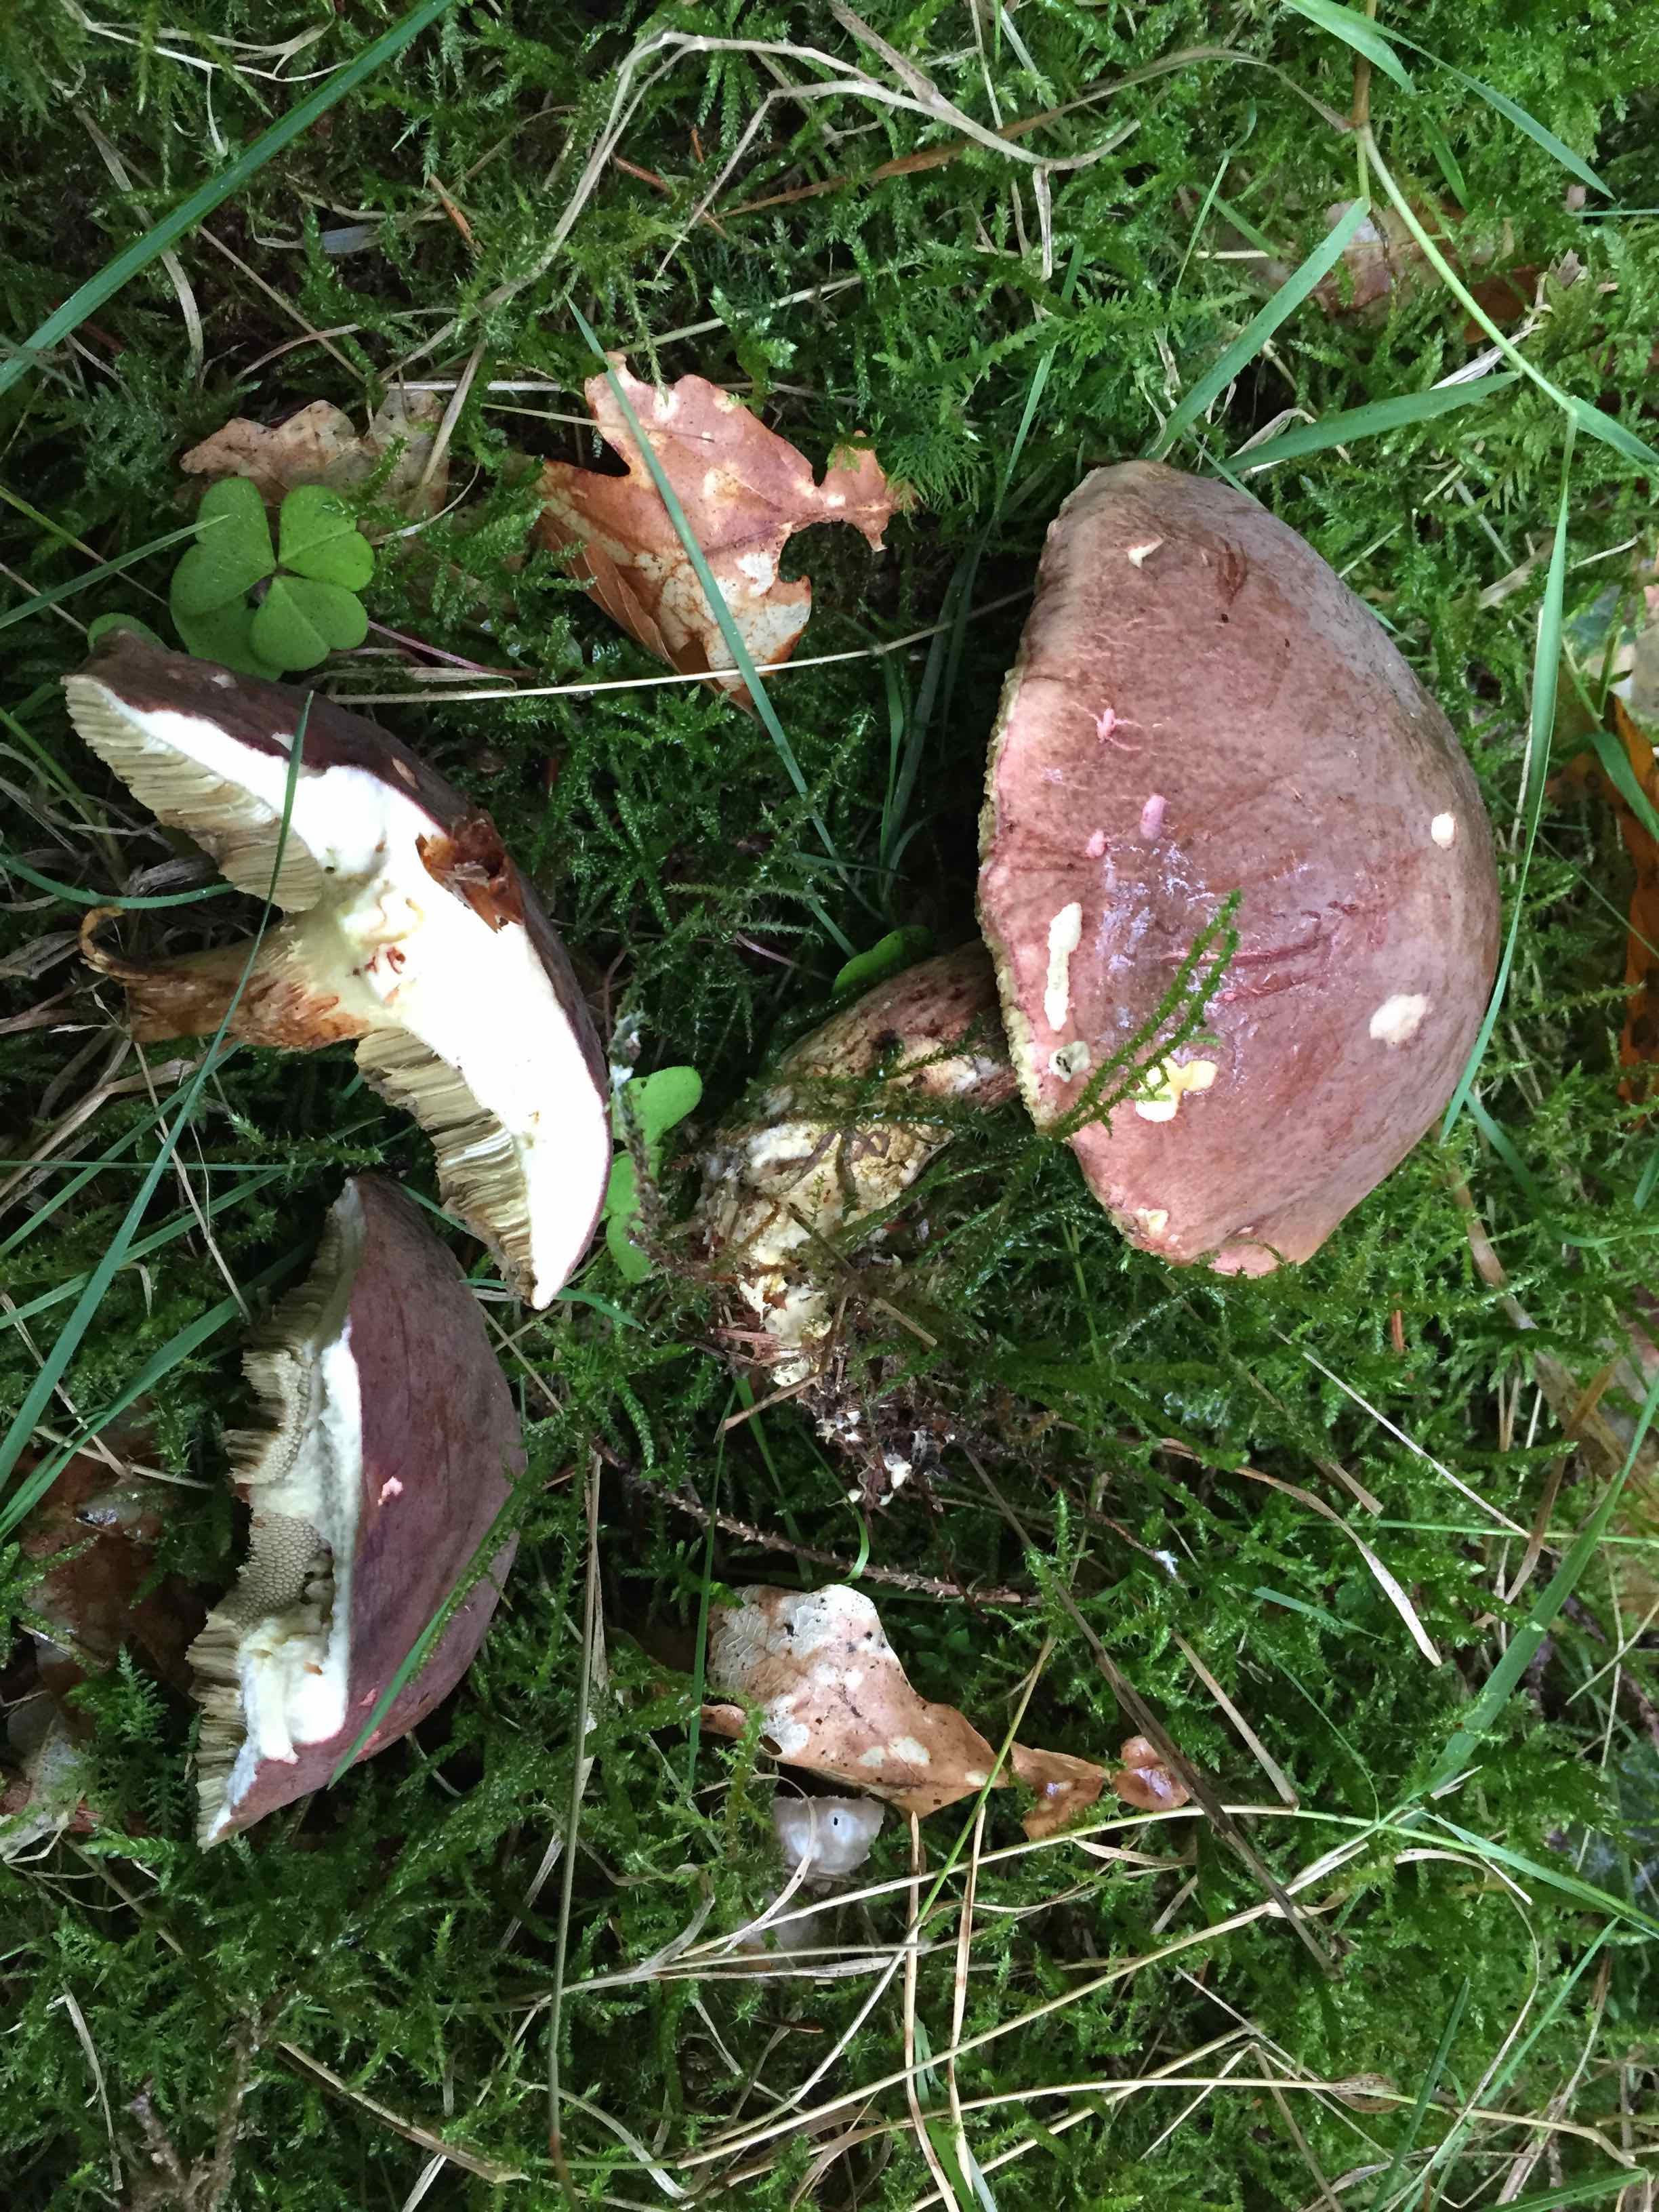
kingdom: Fungi
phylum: Basidiomycota
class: Agaricomycetes
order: Boletales
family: Boletaceae
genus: Xerocomellus
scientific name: Xerocomellus pruinatus
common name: dugget rørhat
